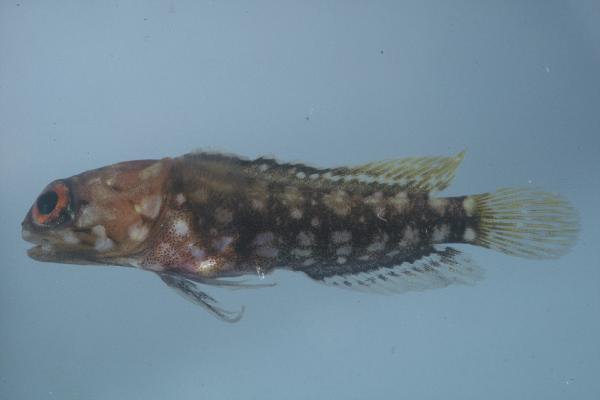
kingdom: Animalia
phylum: Chordata
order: Perciformes
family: Opistognathidae
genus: Opistognathus
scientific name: Opistognathus afer
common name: African jawfish
